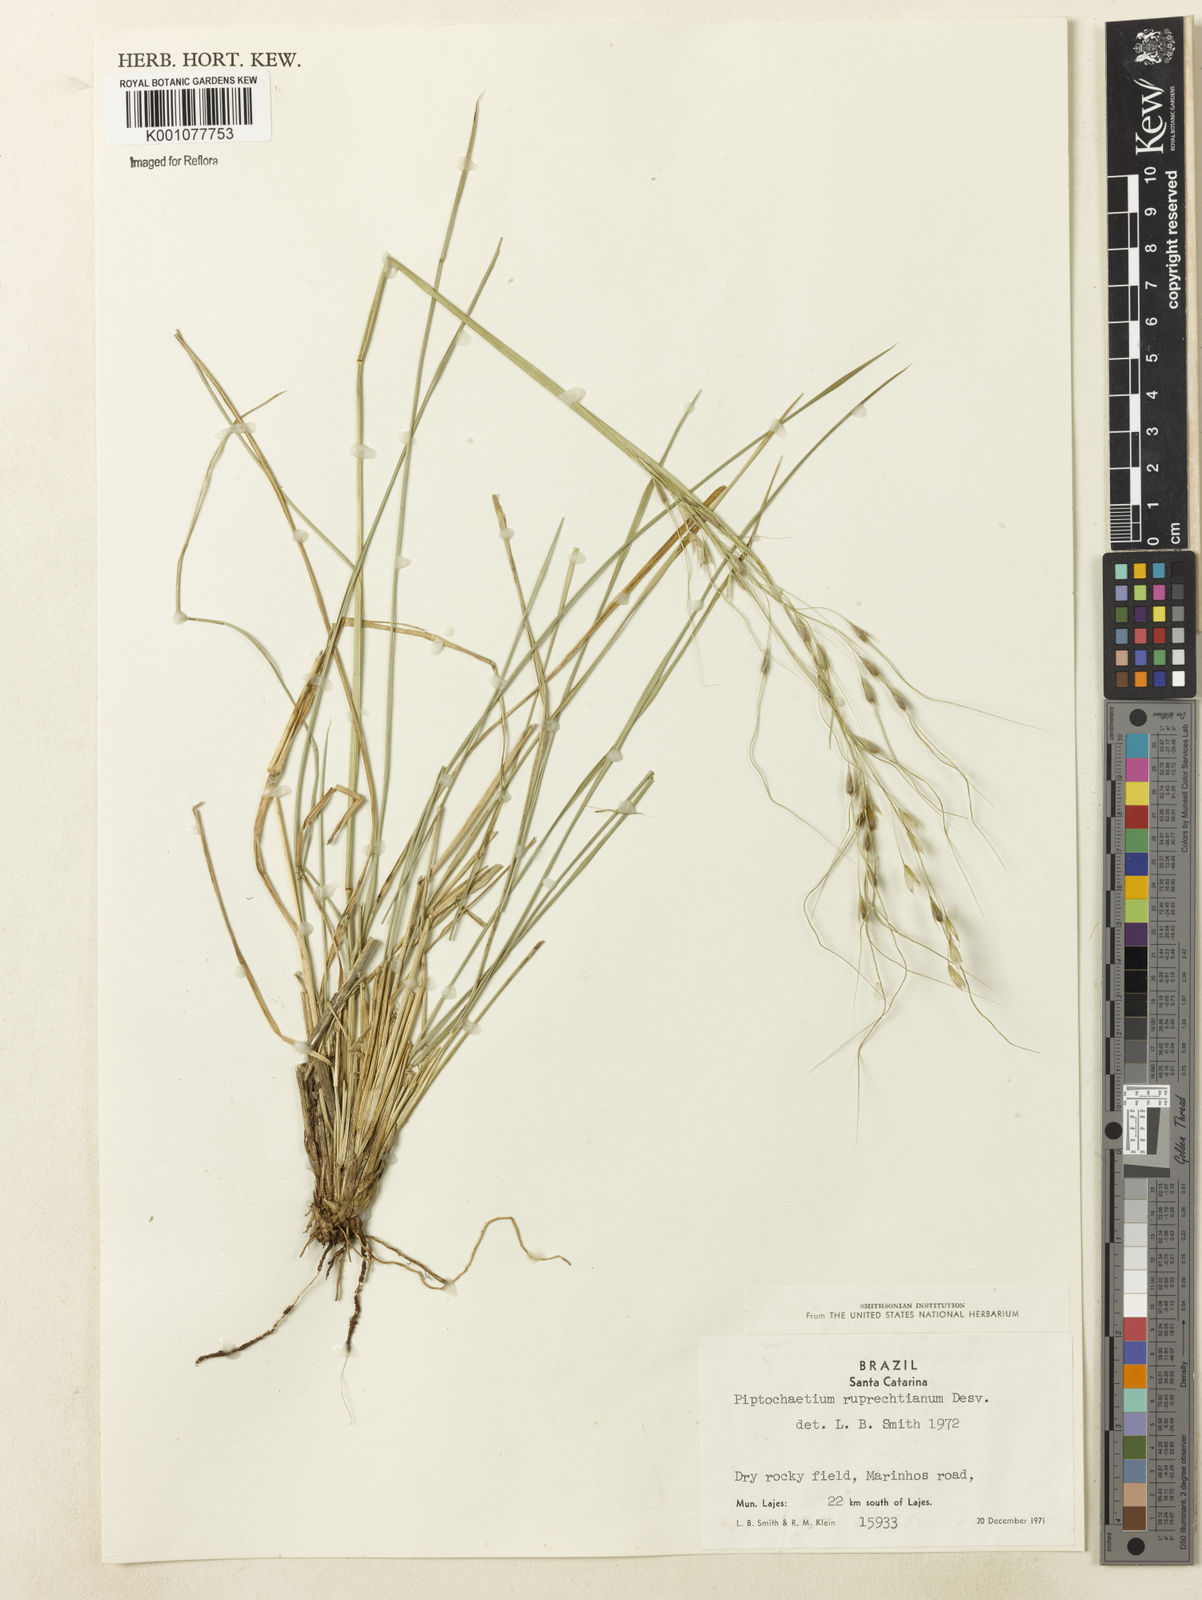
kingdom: Plantae
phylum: Tracheophyta
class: Liliopsida
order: Poales
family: Poaceae
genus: Piptochaetium
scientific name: Piptochaetium ruprechtianum
